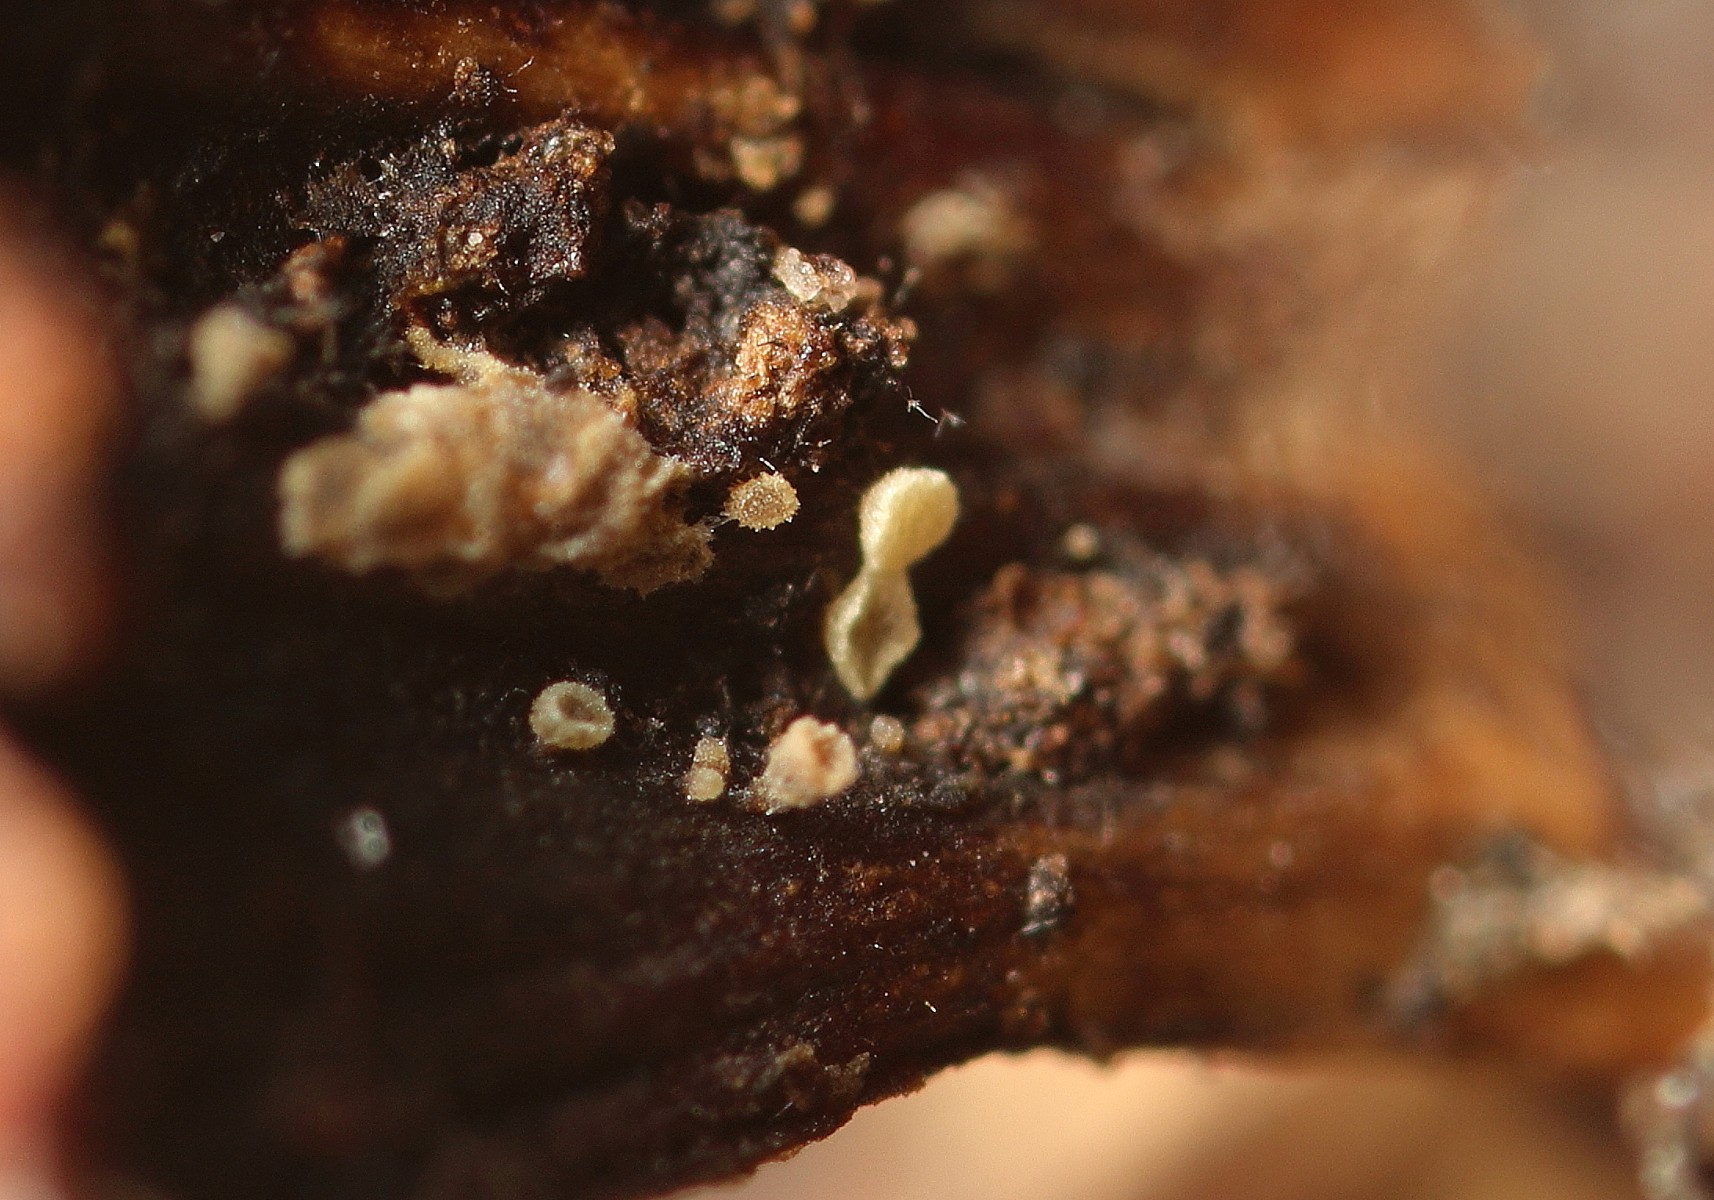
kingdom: Fungi
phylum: Ascomycota
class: Leotiomycetes
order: Helotiales
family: Pezizellaceae
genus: Calycellina
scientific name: Calycellina leucella
